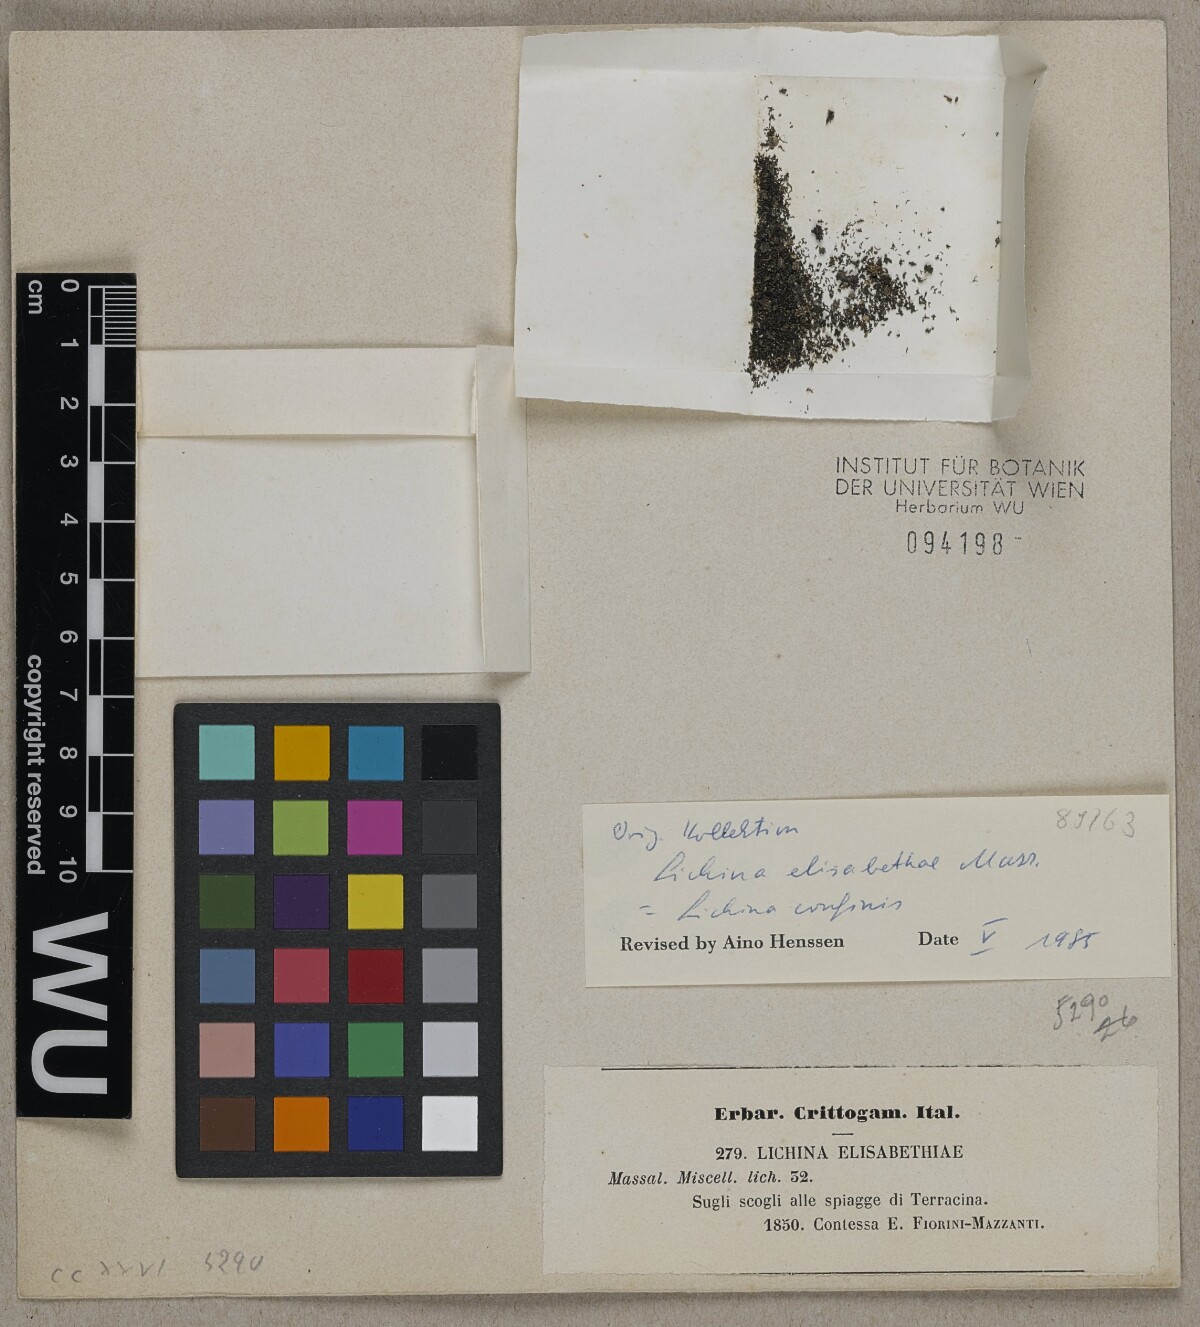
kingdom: Fungi
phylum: Ascomycota
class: Lichinomycetes
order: Lichinales
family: Lichinaceae
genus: Lichina
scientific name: Lichina
